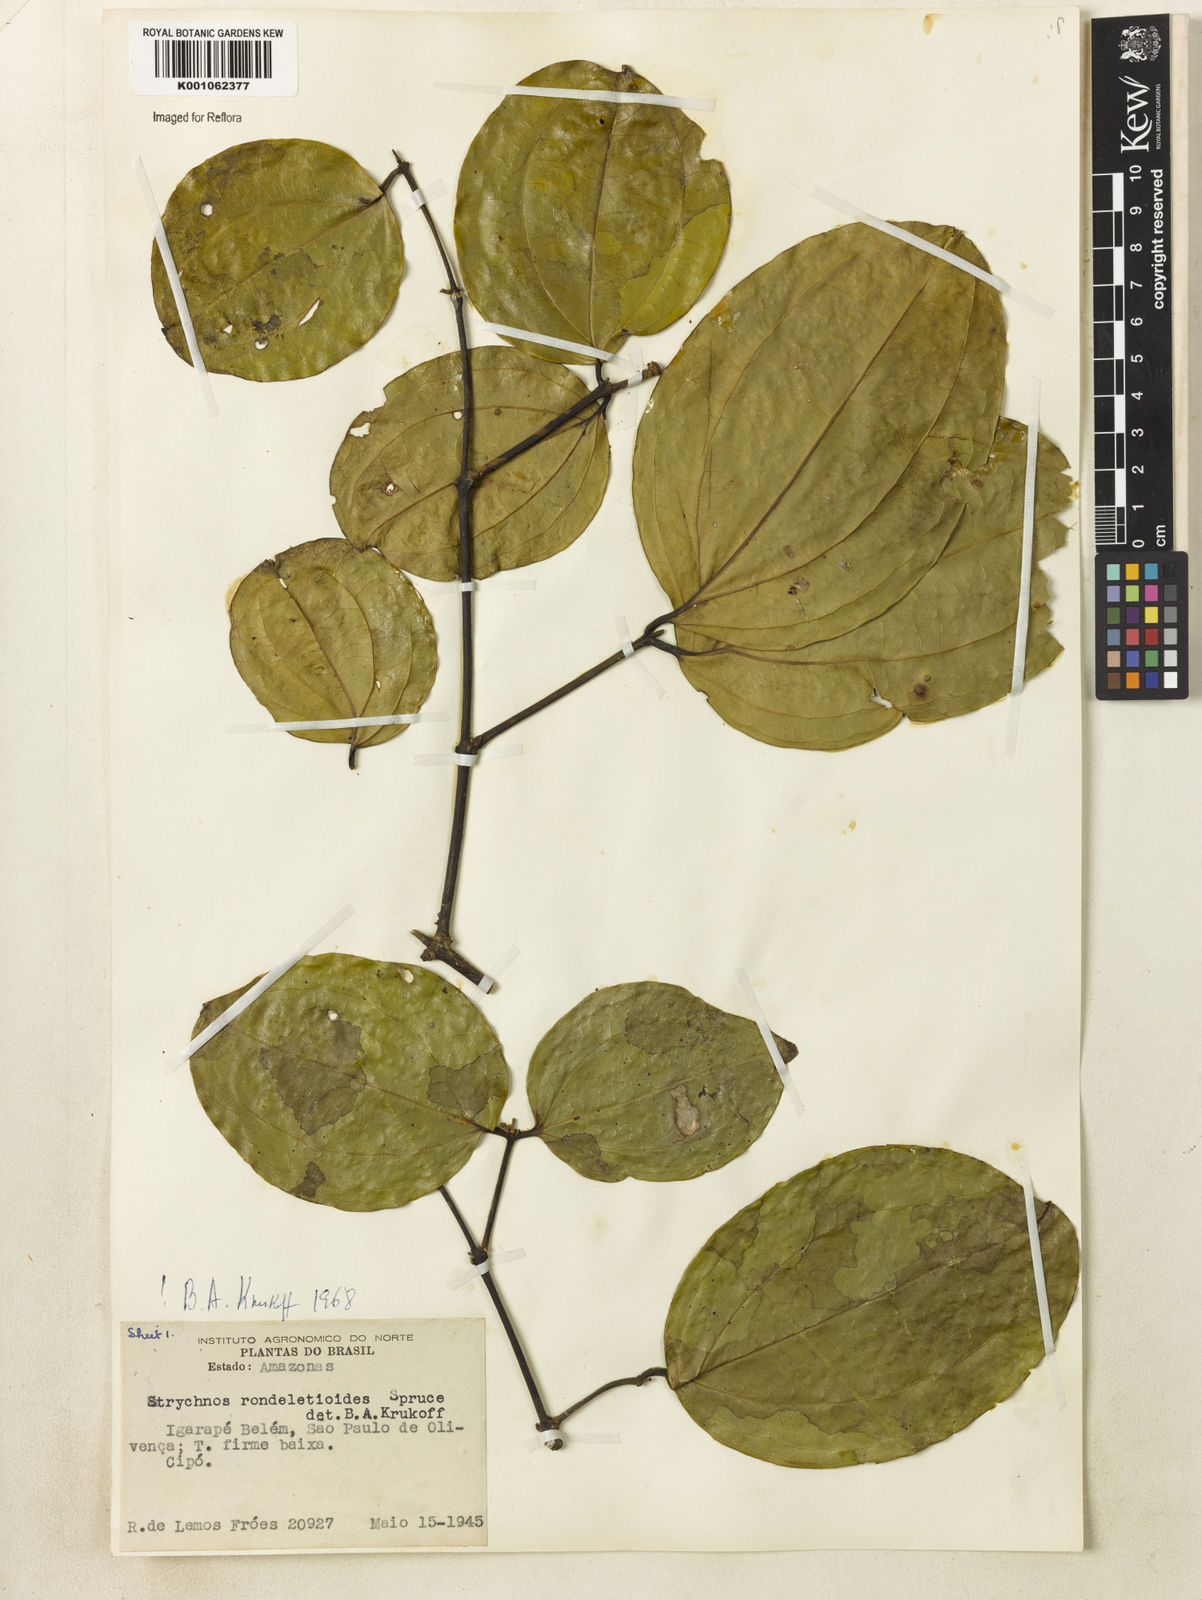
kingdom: Plantae
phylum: Tracheophyta
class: Magnoliopsida
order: Gentianales
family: Loganiaceae
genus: Strychnos
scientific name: Strychnos rondeletioides
